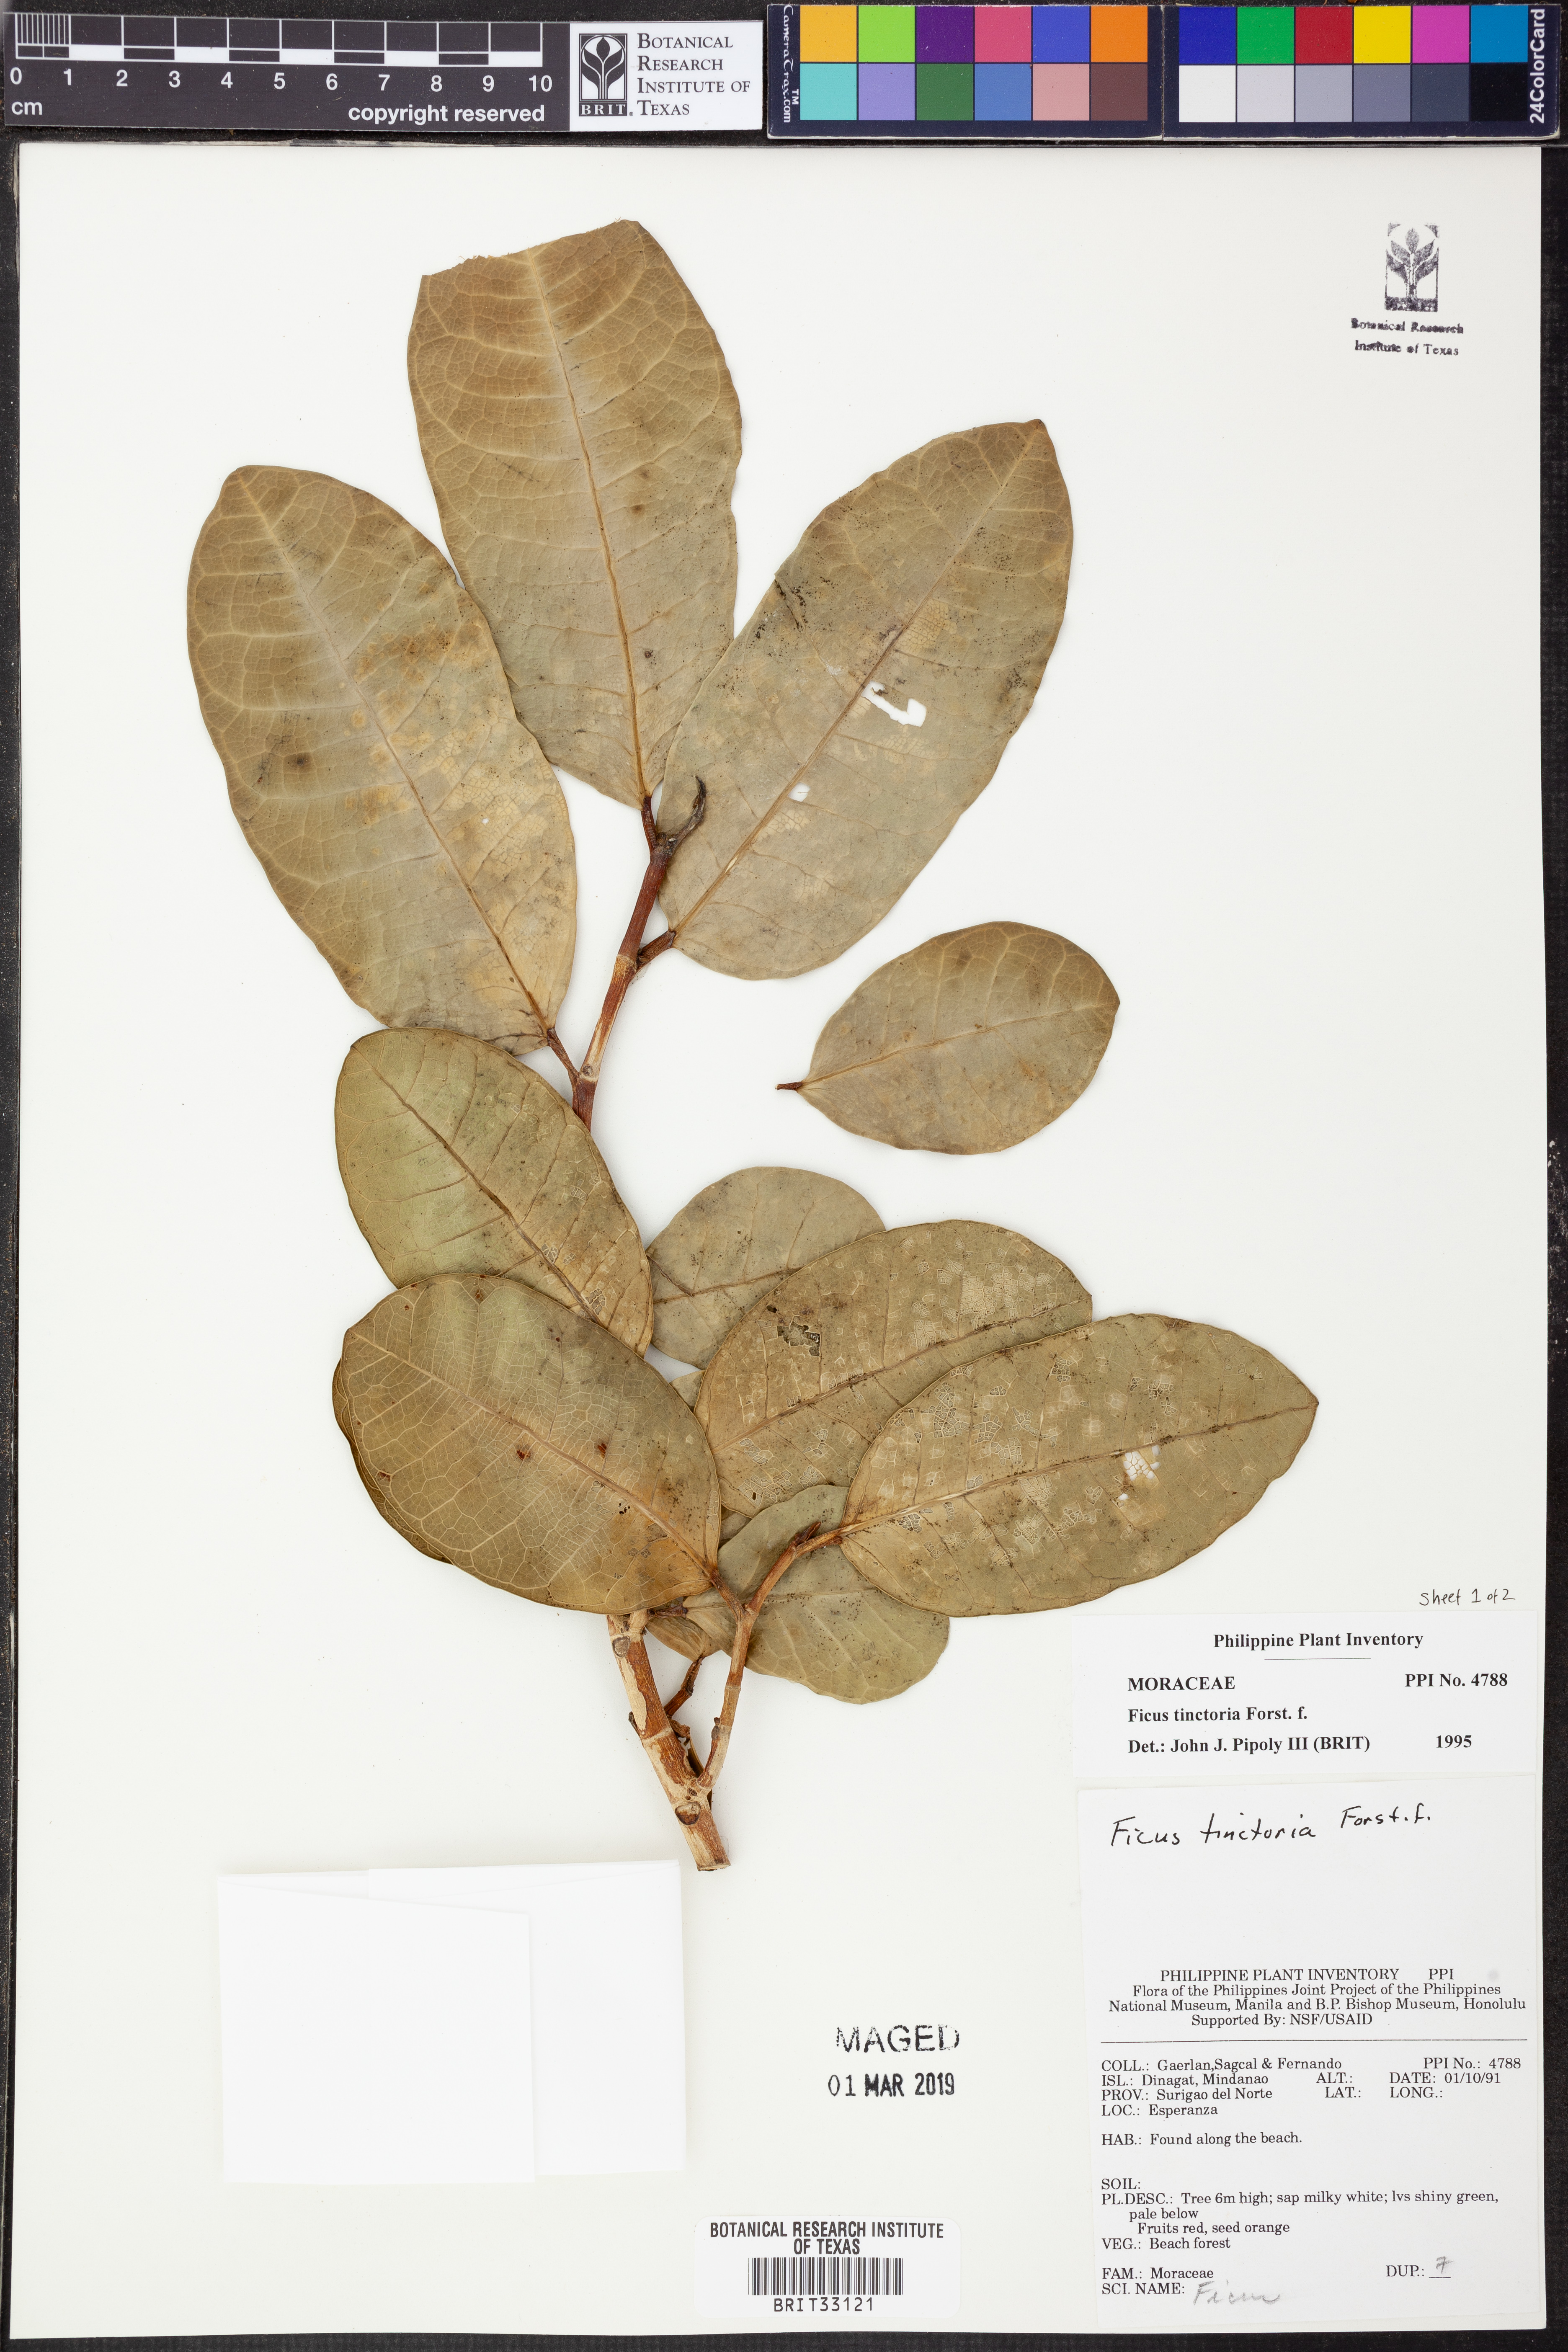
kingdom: Plantae
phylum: Tracheophyta
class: Magnoliopsida
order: Rosales
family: Moraceae
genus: Ficus
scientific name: Ficus tinctoria
